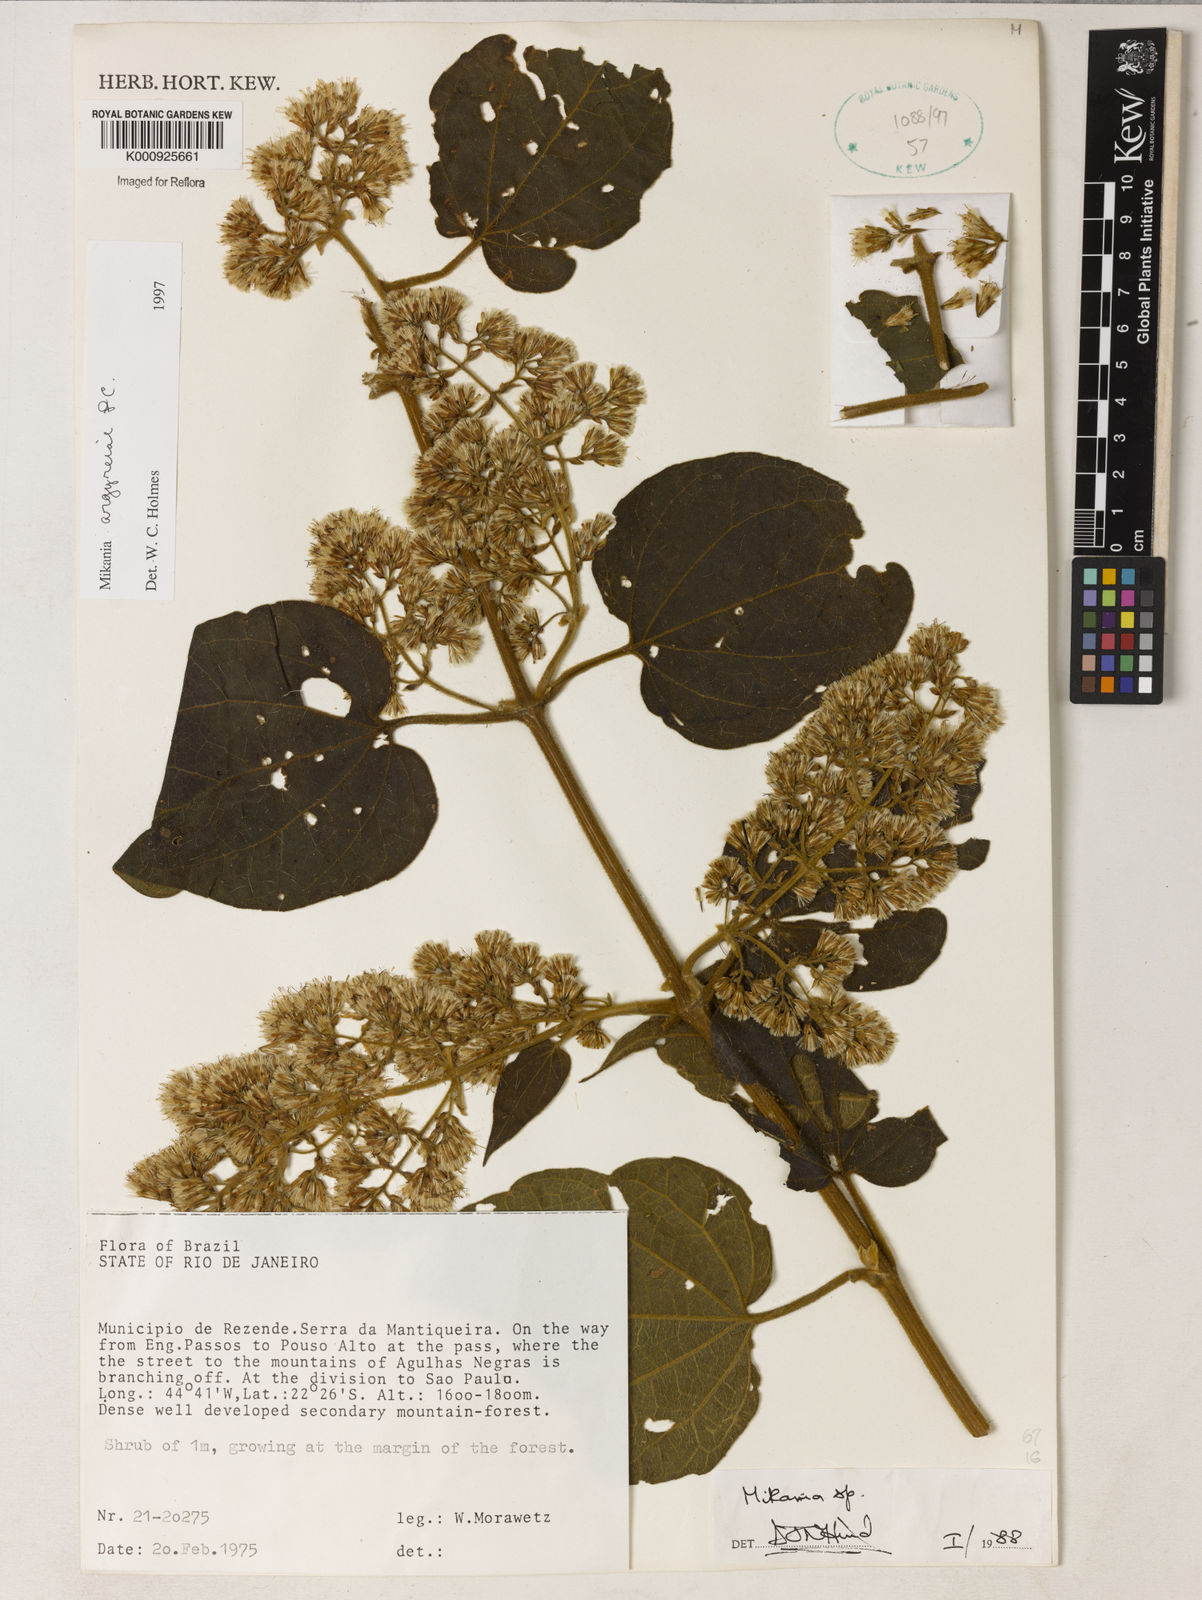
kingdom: Plantae
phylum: Tracheophyta
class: Magnoliopsida
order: Asterales
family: Asteraceae
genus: Mikania
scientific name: Mikania
